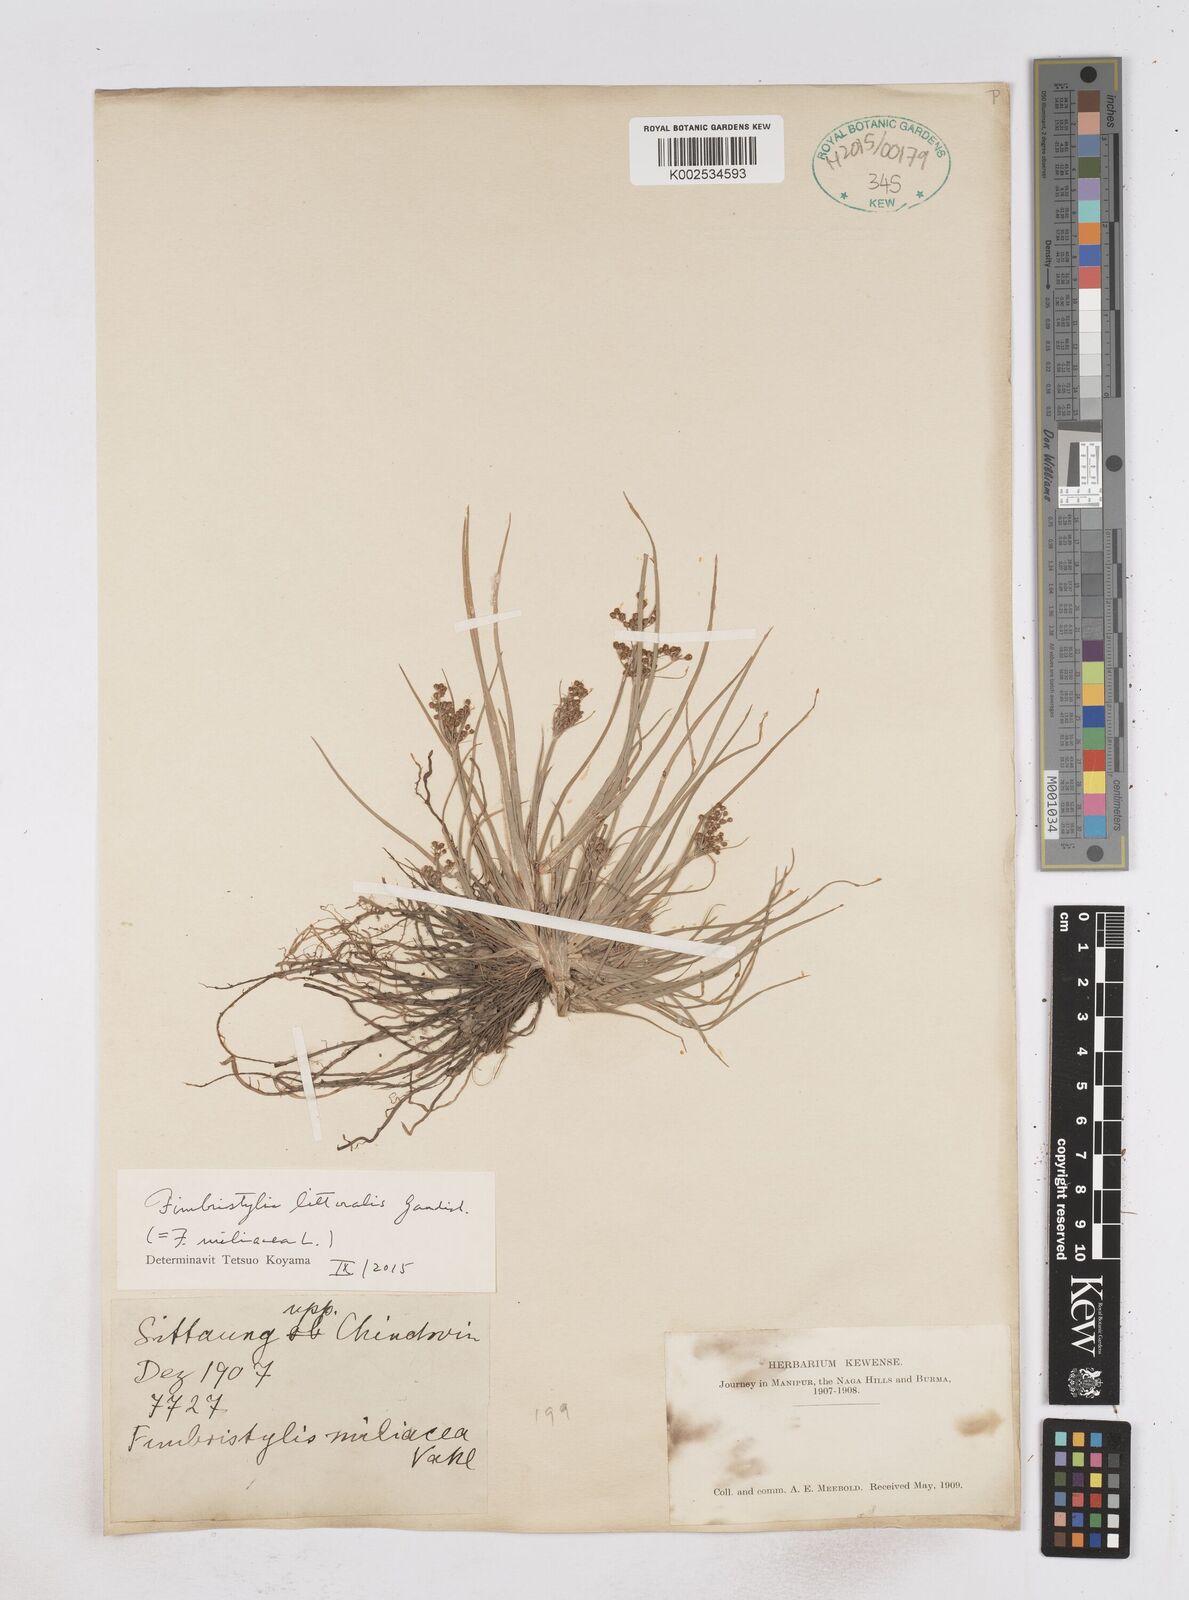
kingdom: Plantae
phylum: Tracheophyta
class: Liliopsida
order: Poales
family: Cyperaceae
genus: Fimbristylis
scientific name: Fimbristylis littoralis
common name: Fimbry
